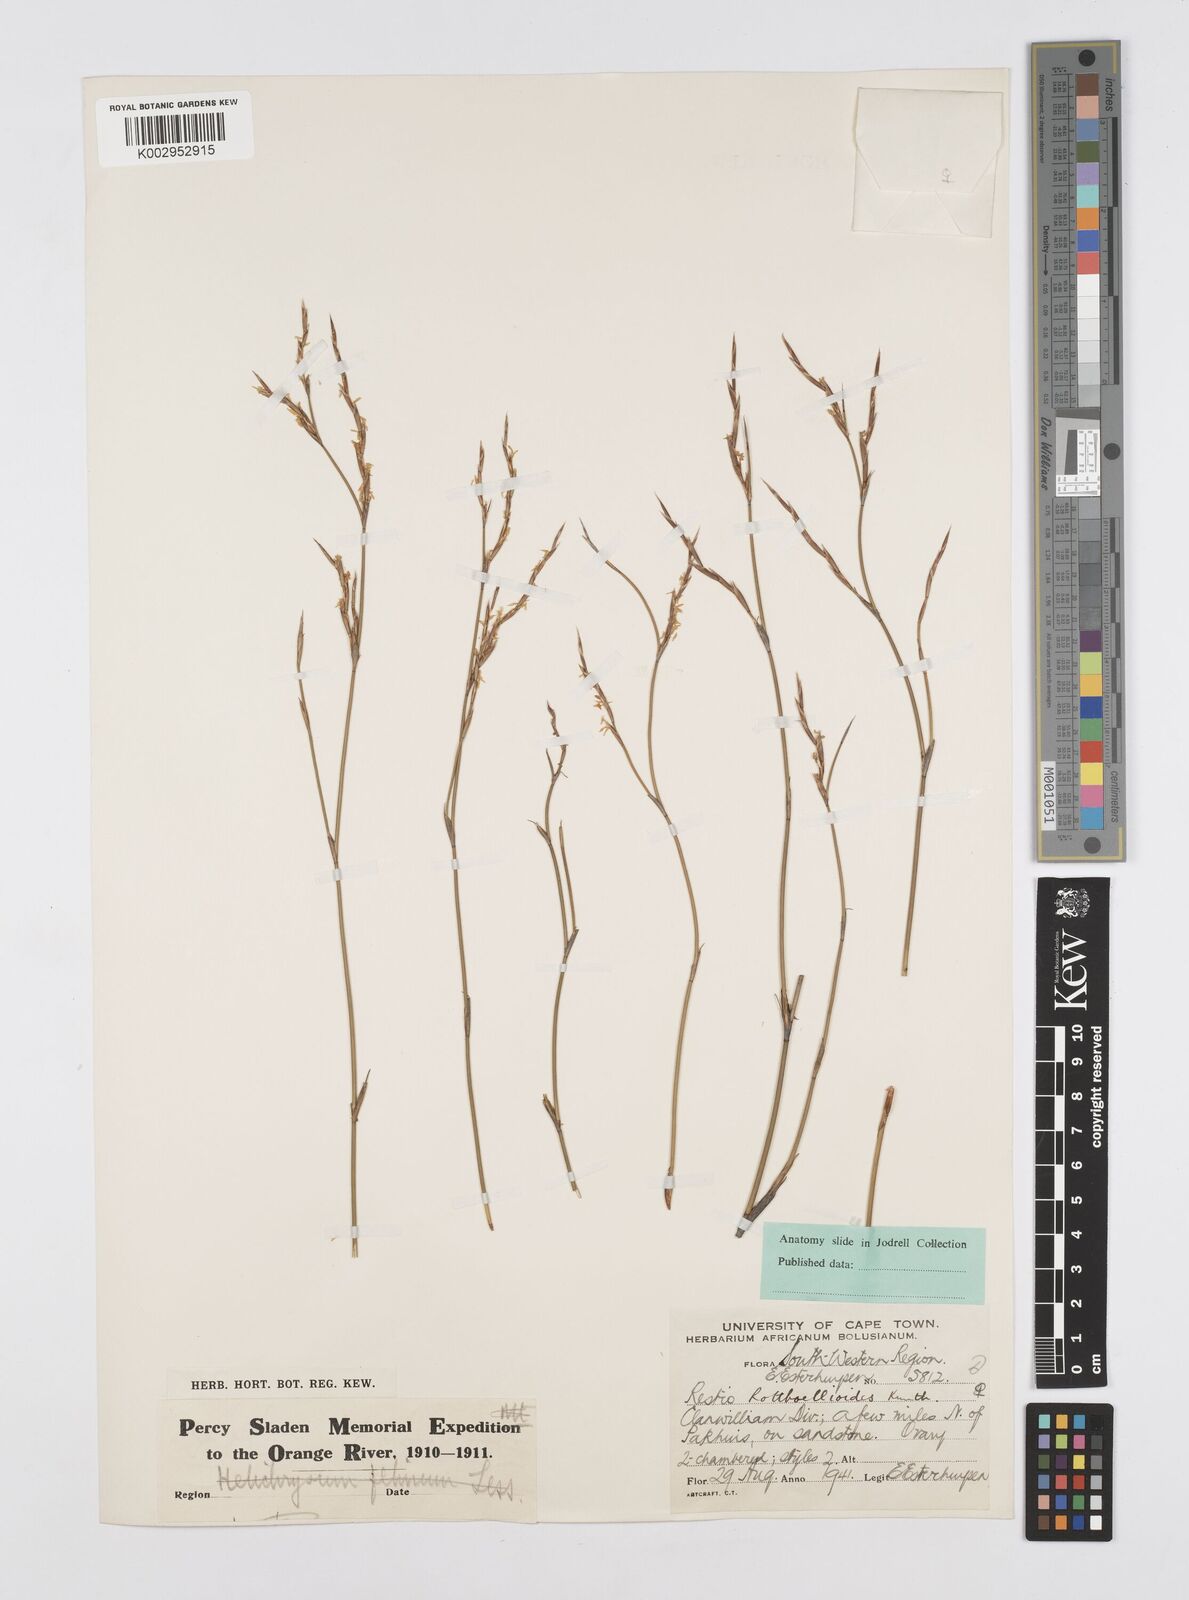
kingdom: Plantae
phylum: Tracheophyta
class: Liliopsida
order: Poales
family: Restionaceae
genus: Restio
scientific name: Restio rottboellioides
